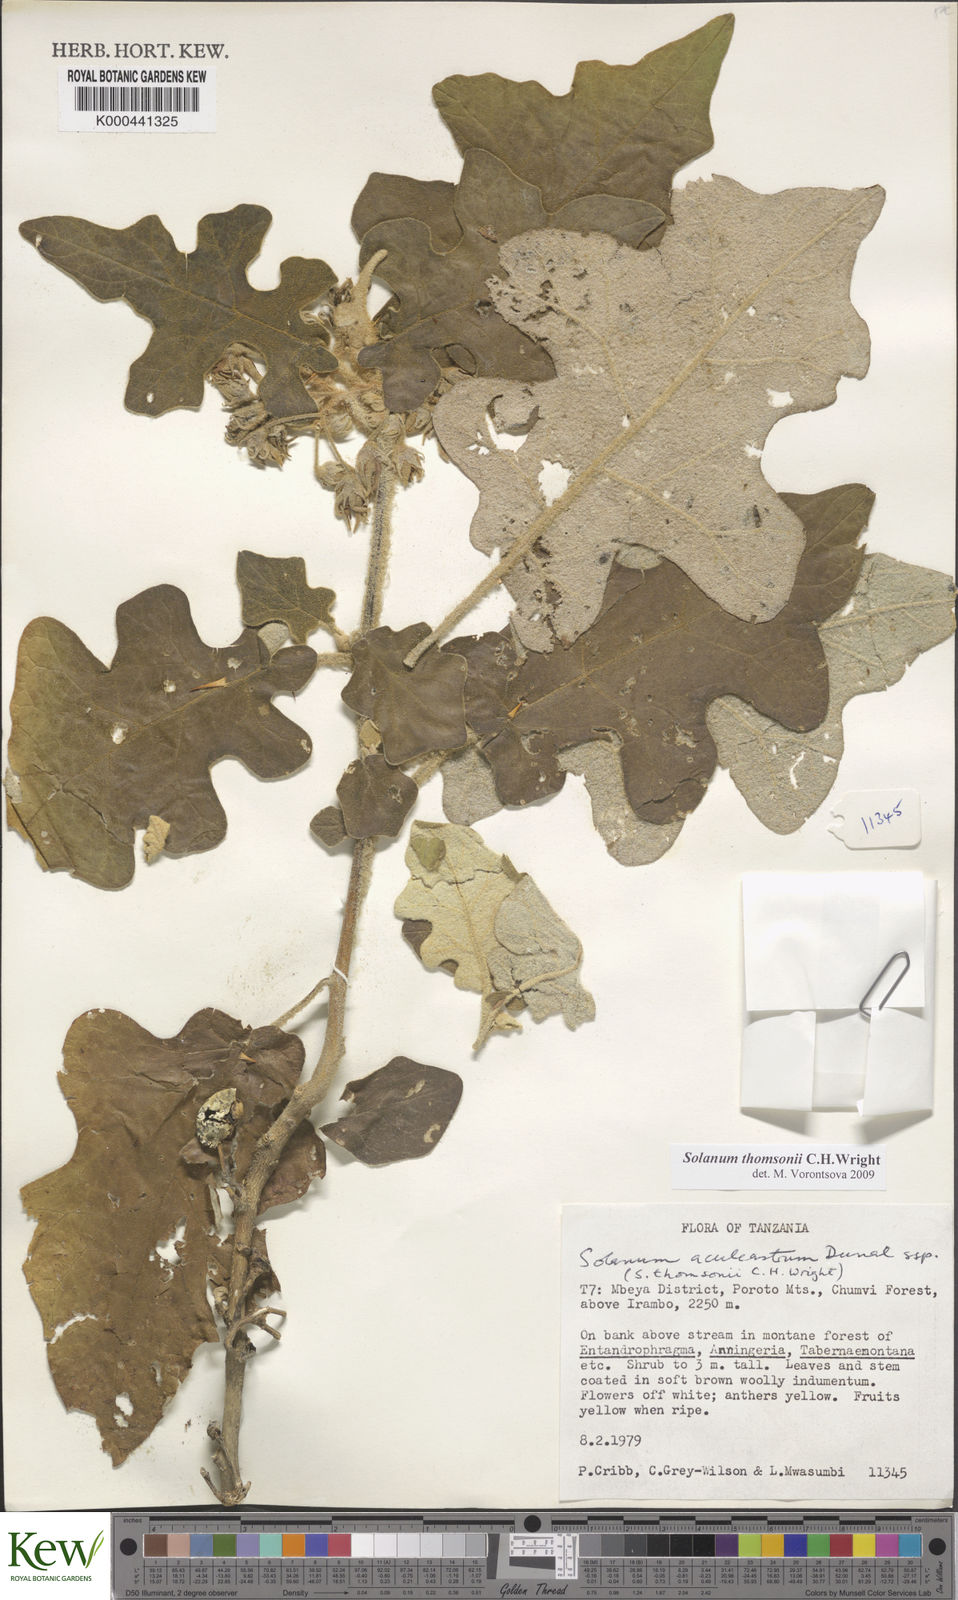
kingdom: Plantae
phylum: Tracheophyta
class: Magnoliopsida
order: Solanales
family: Solanaceae
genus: Solanum
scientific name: Solanum aculeastrum
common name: Goat bitter-apple
